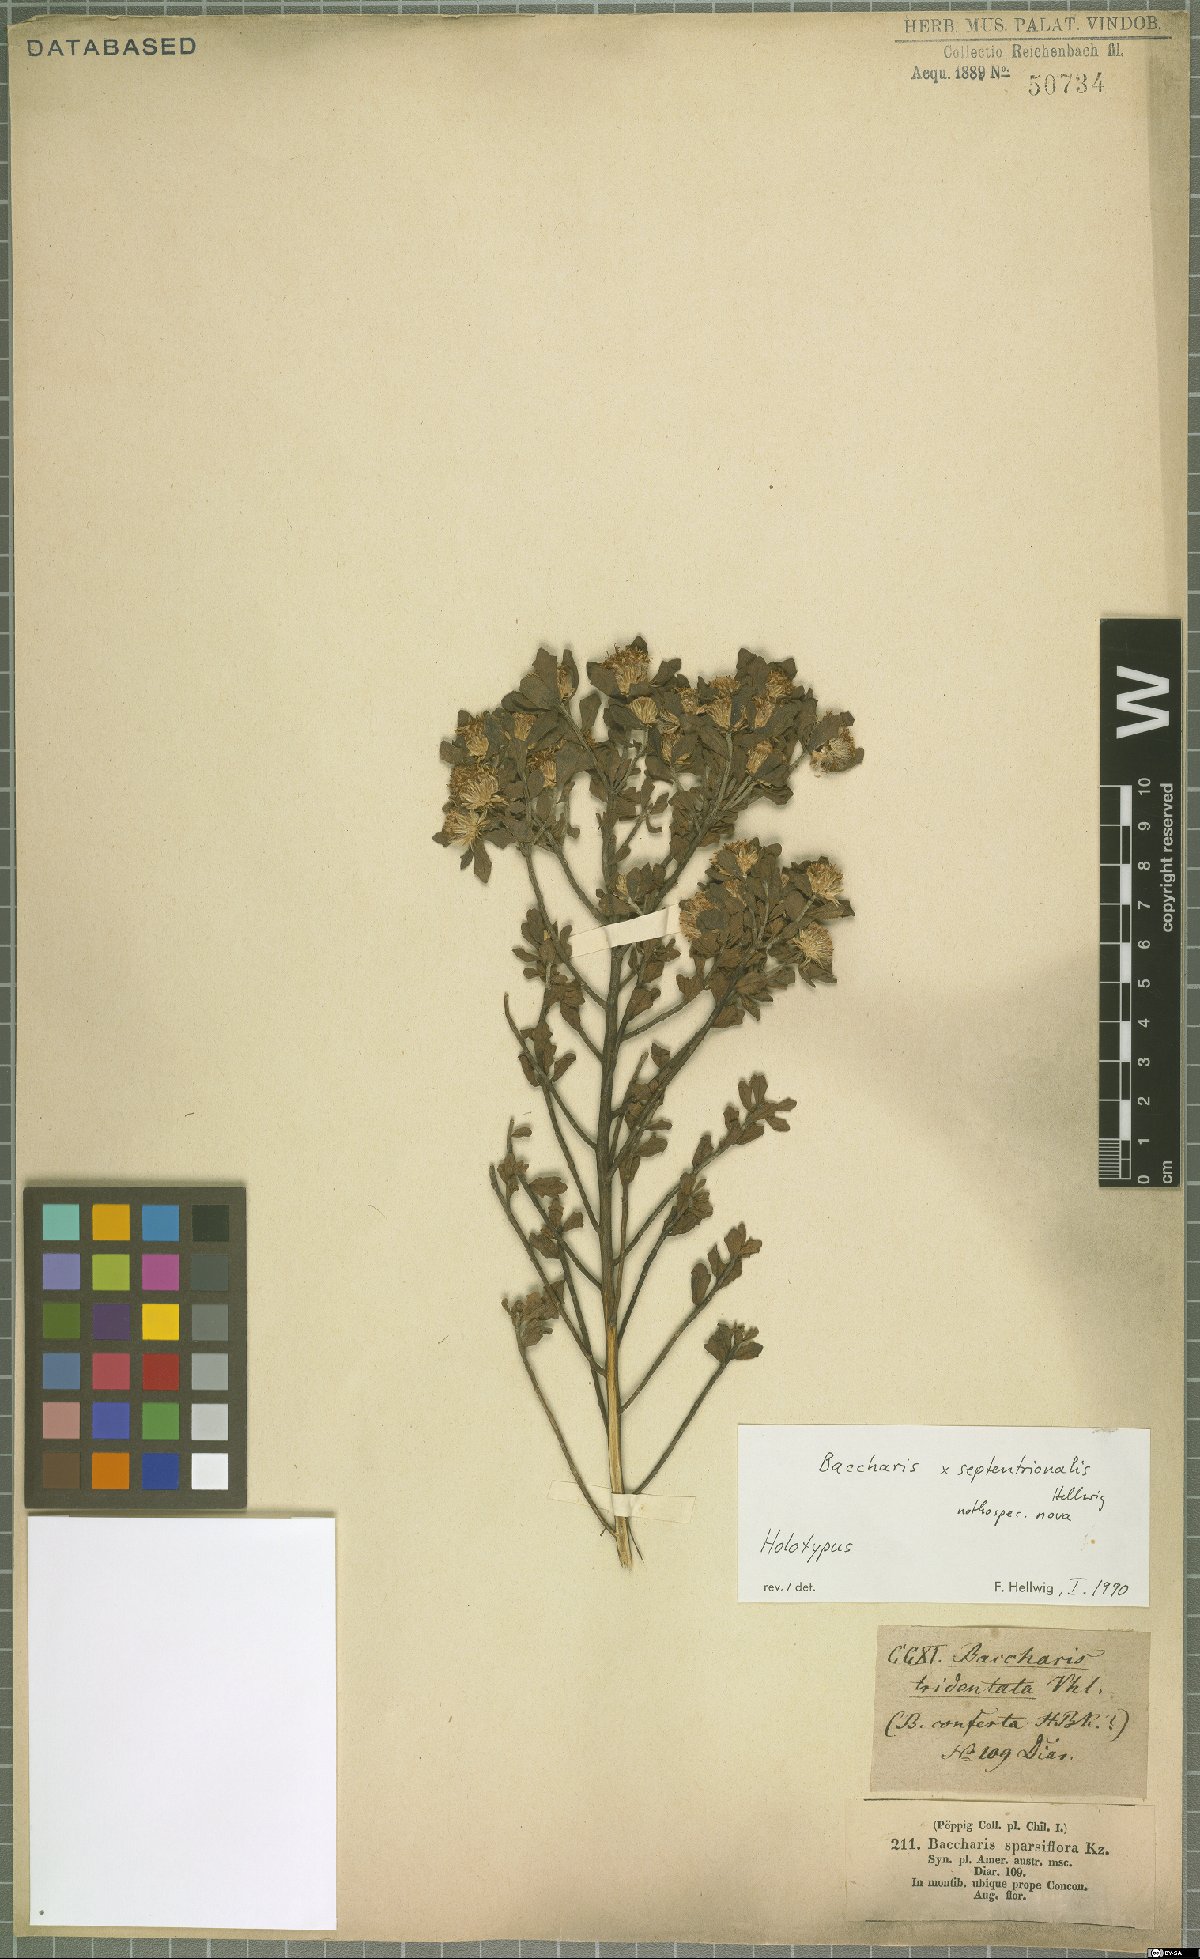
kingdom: Plantae
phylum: Tracheophyta
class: Magnoliopsida
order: Asterales
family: Asteraceae
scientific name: Asteraceae
